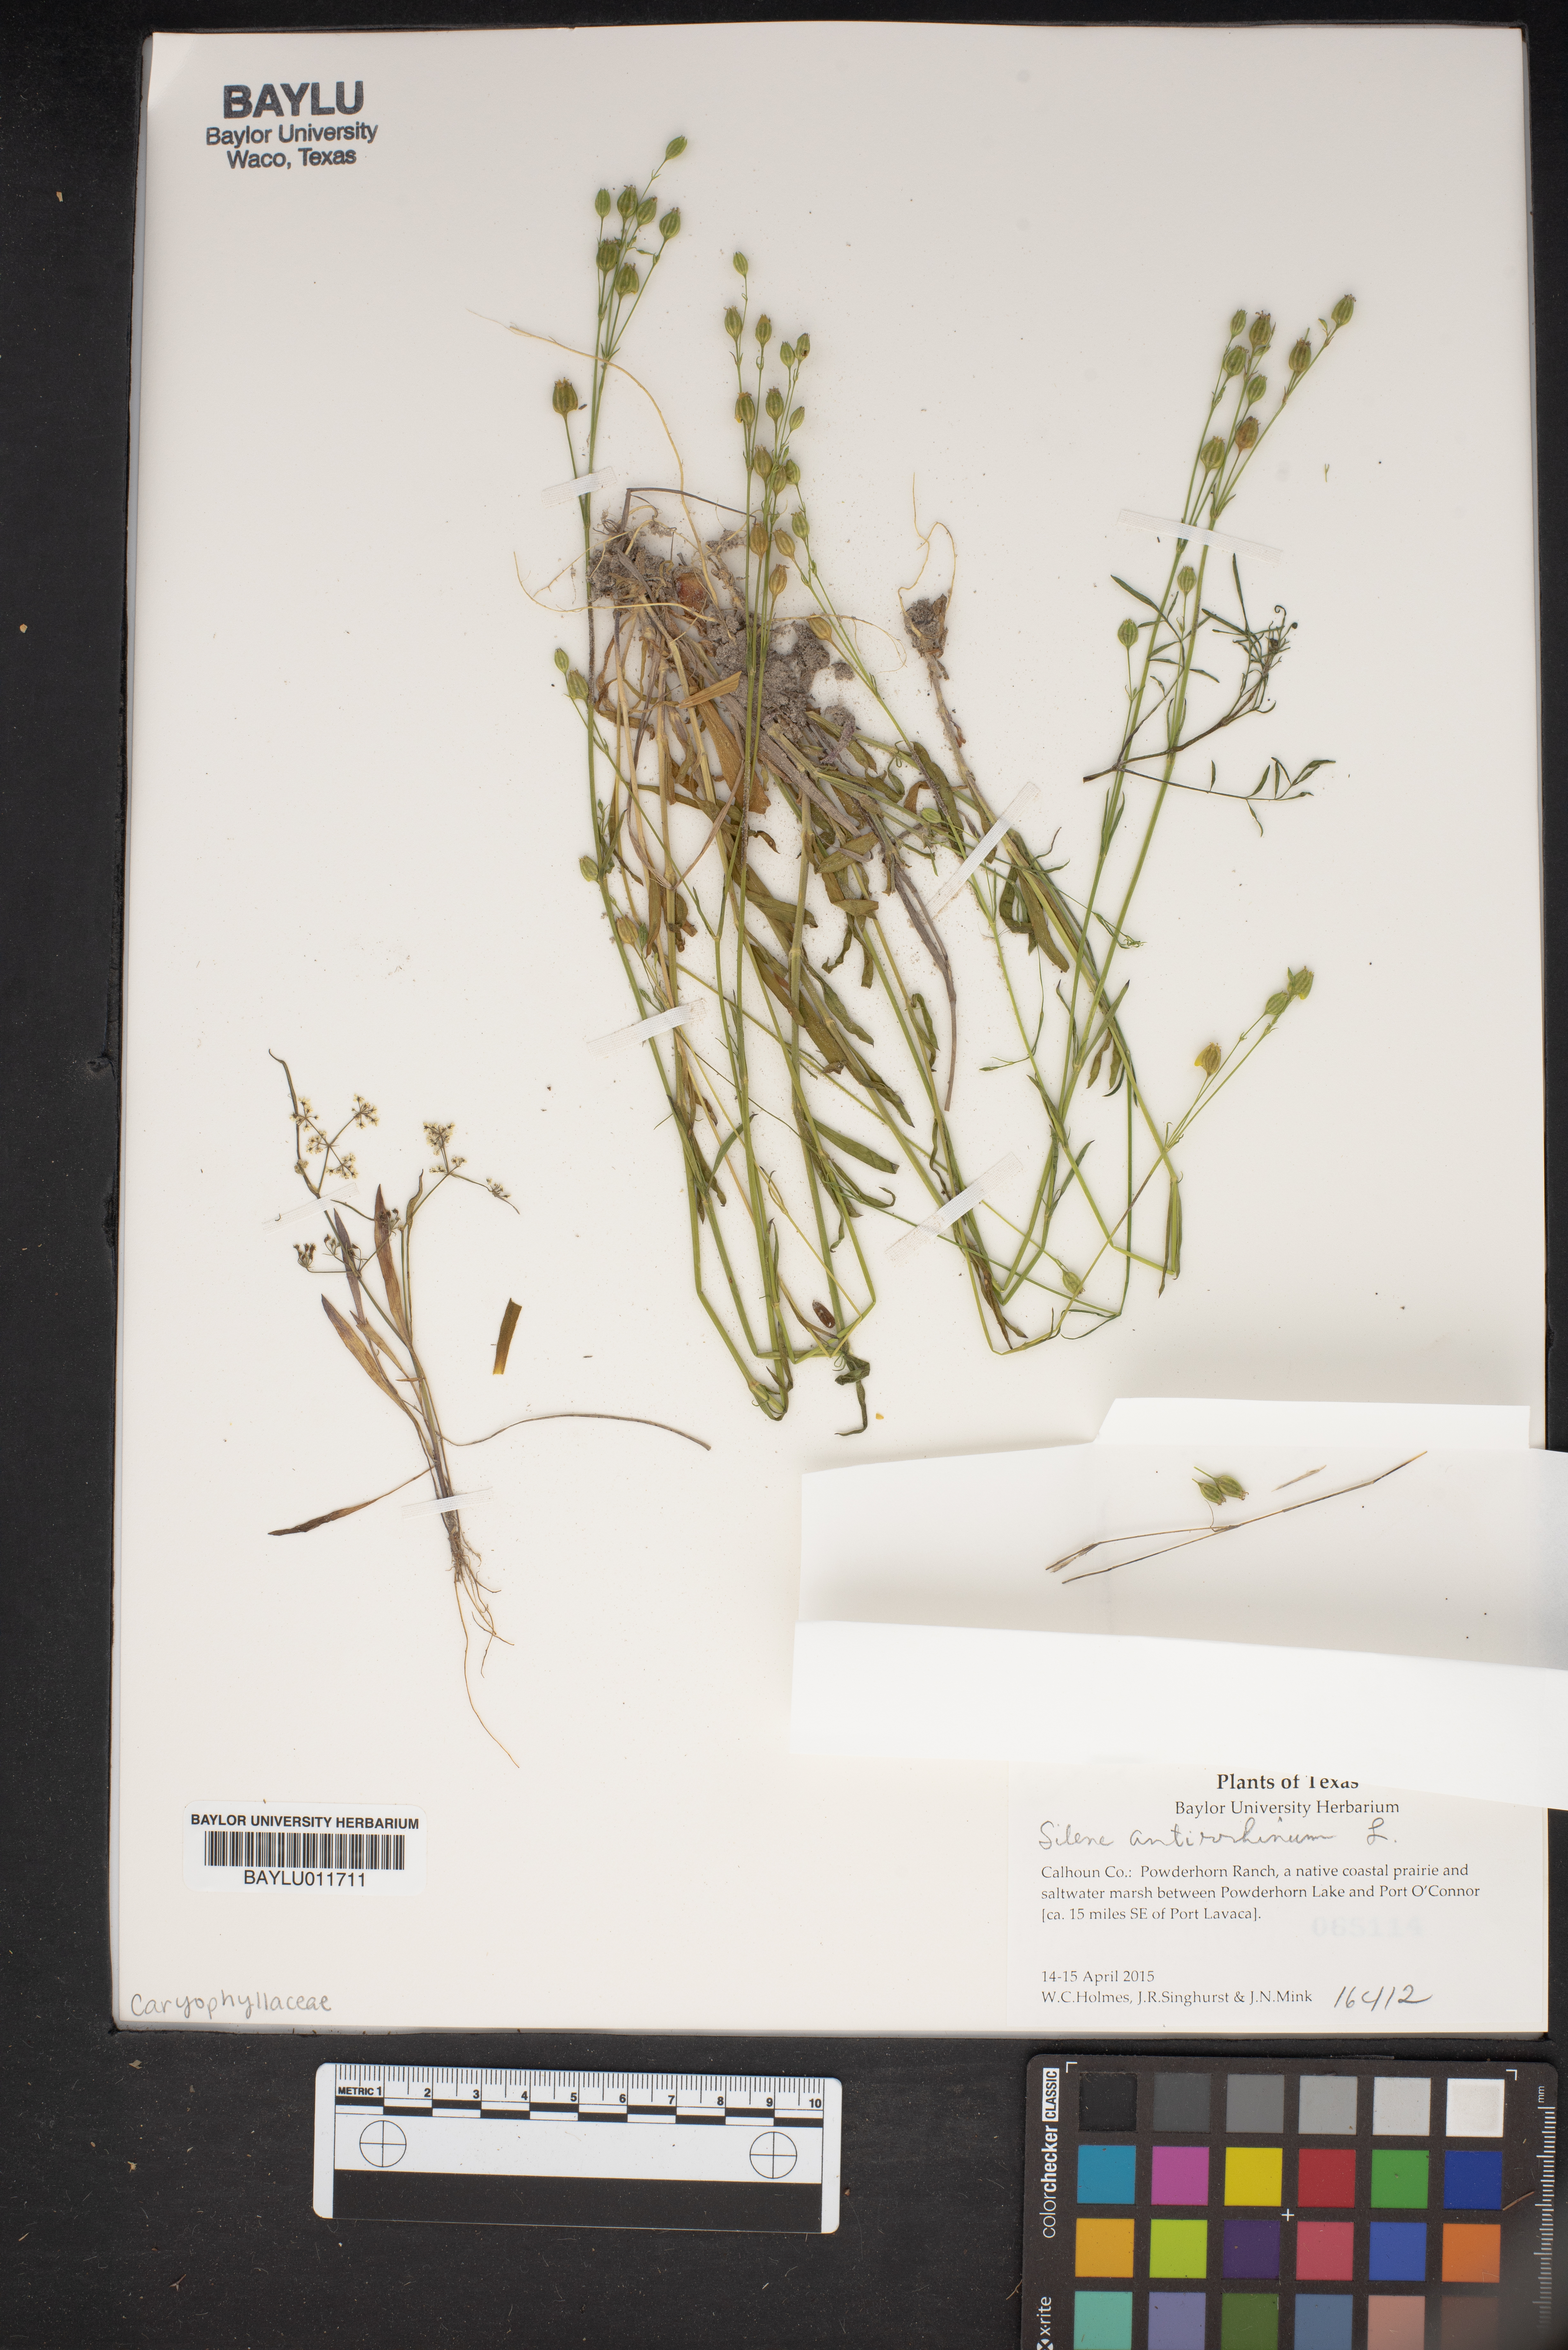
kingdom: Plantae
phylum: Tracheophyta
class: Magnoliopsida
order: Caryophyllales
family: Caryophyllaceae
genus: Silene
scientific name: Silene antirrhina
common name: Sleepy catchfly
